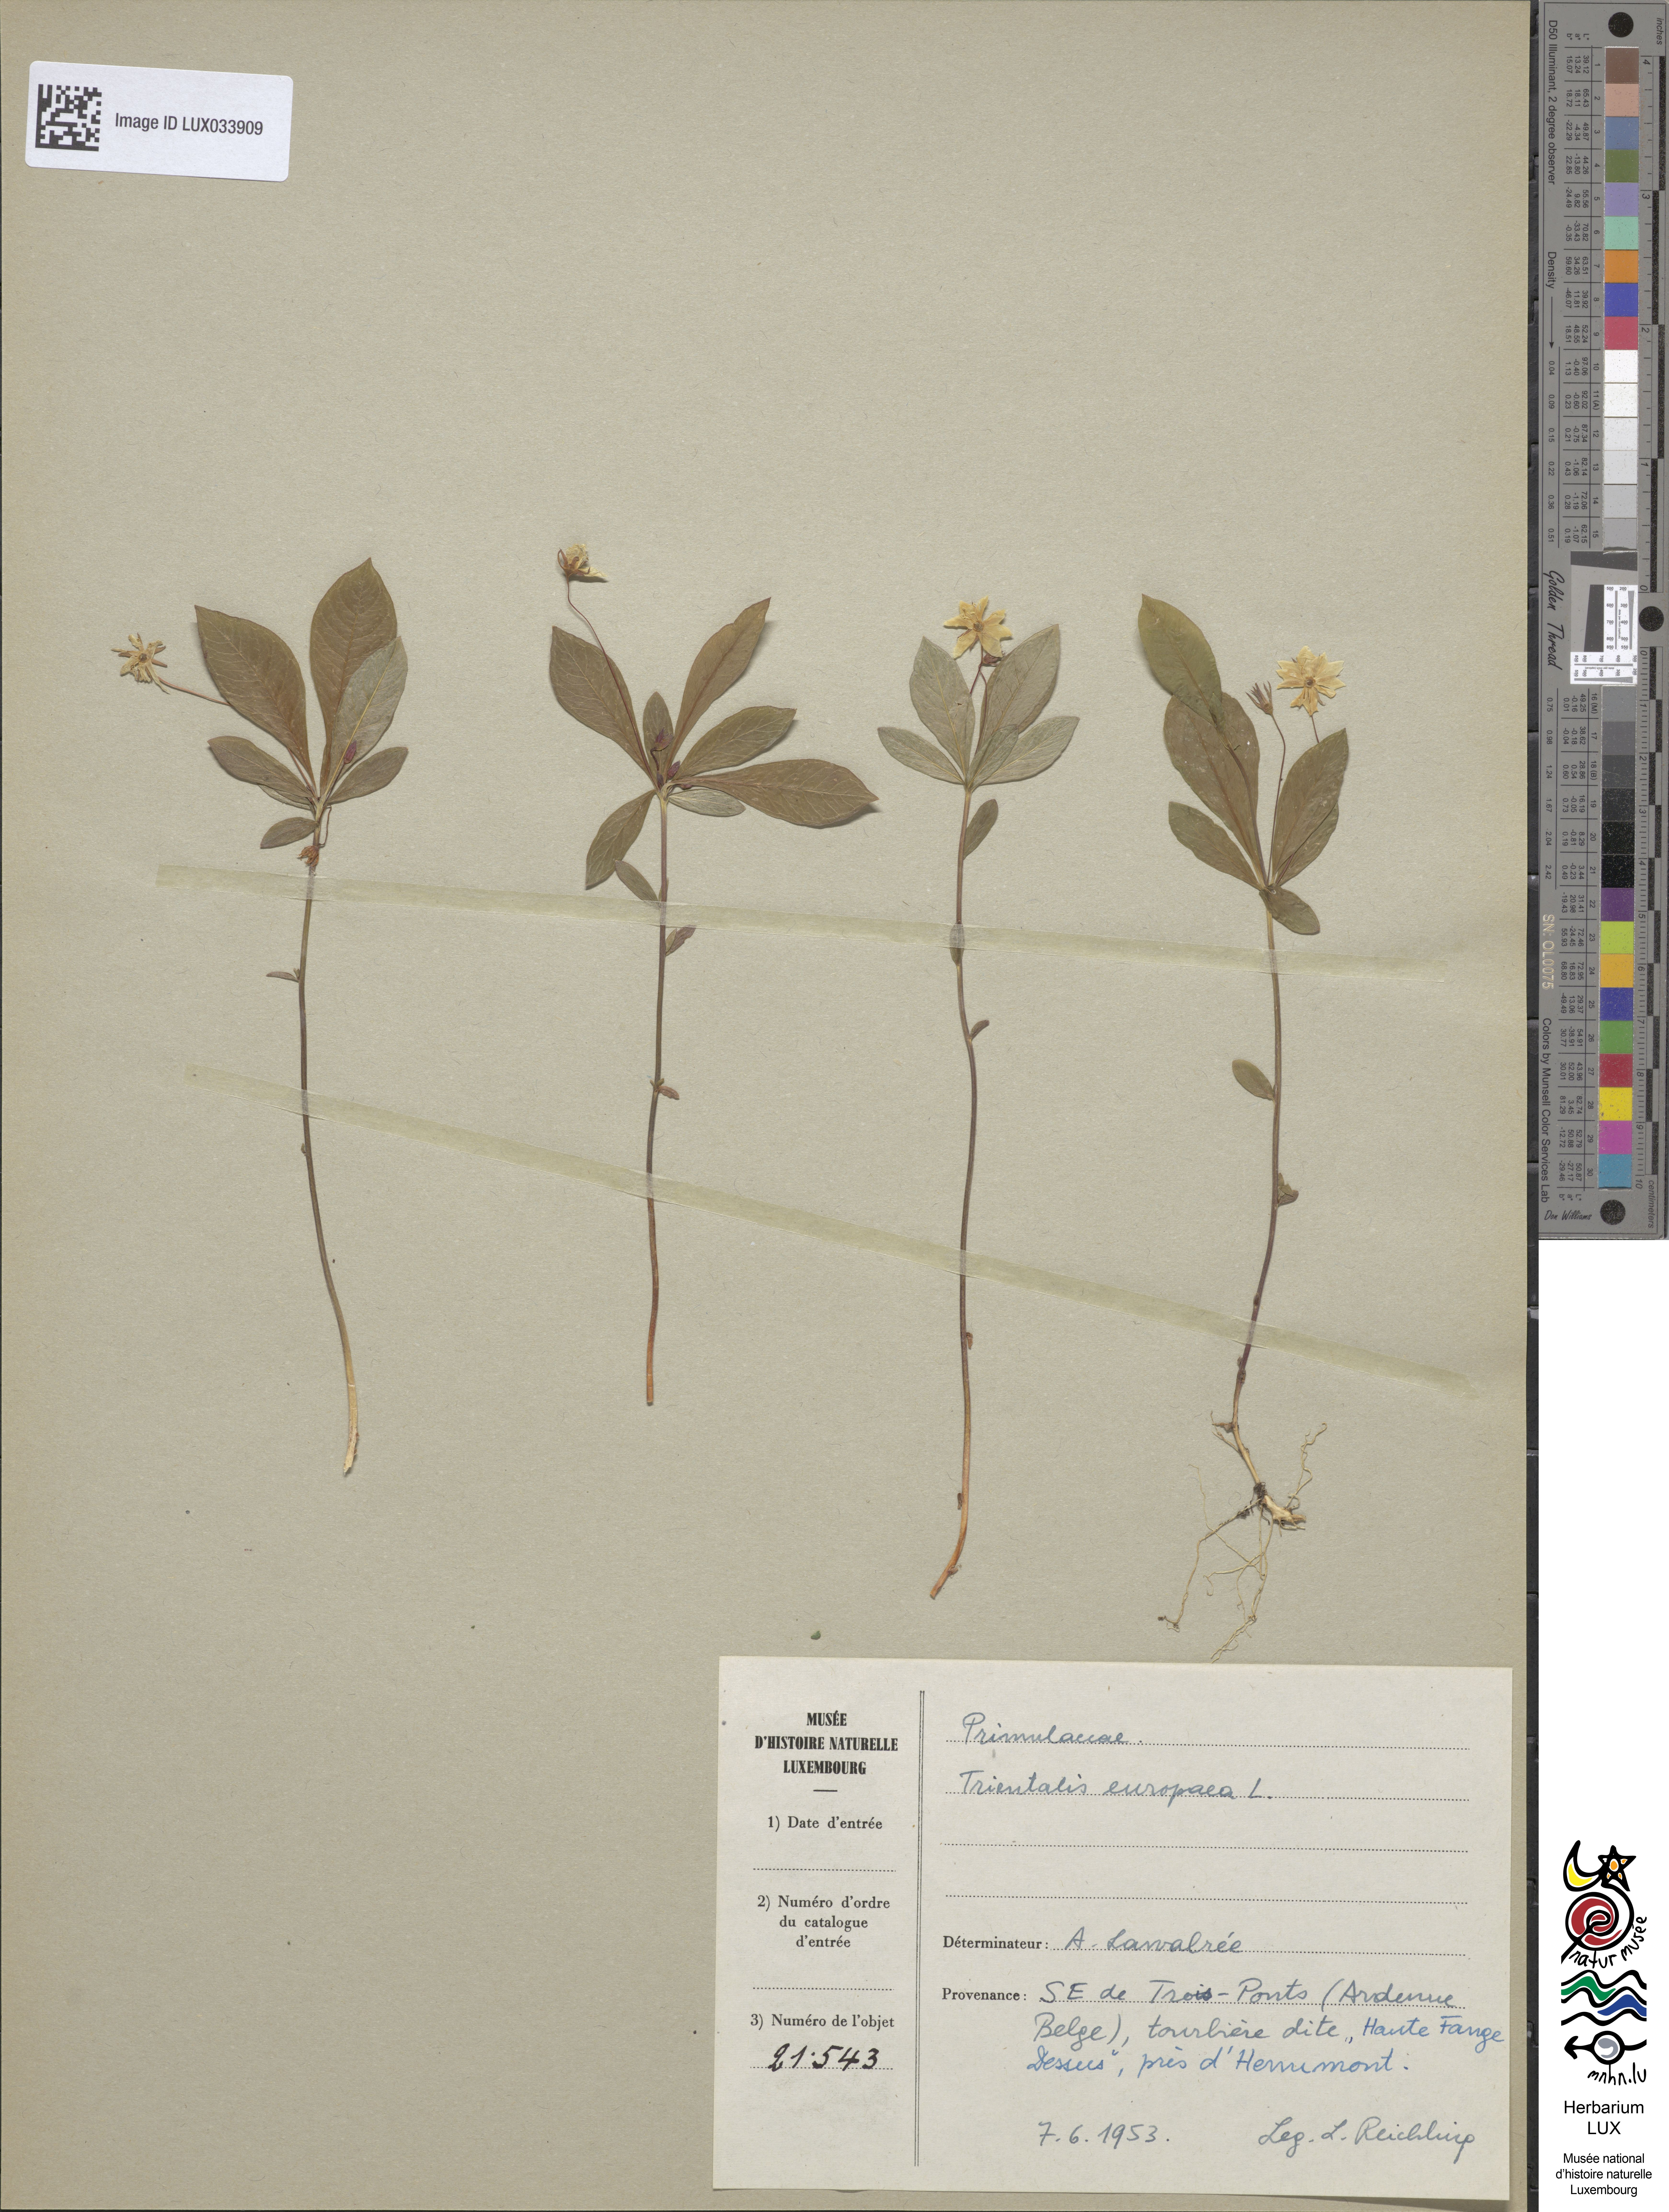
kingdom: Plantae
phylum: Tracheophyta
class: Magnoliopsida
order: Ericales
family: Primulaceae
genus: Lysimachia
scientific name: Lysimachia europaea
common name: Arctic starflower
